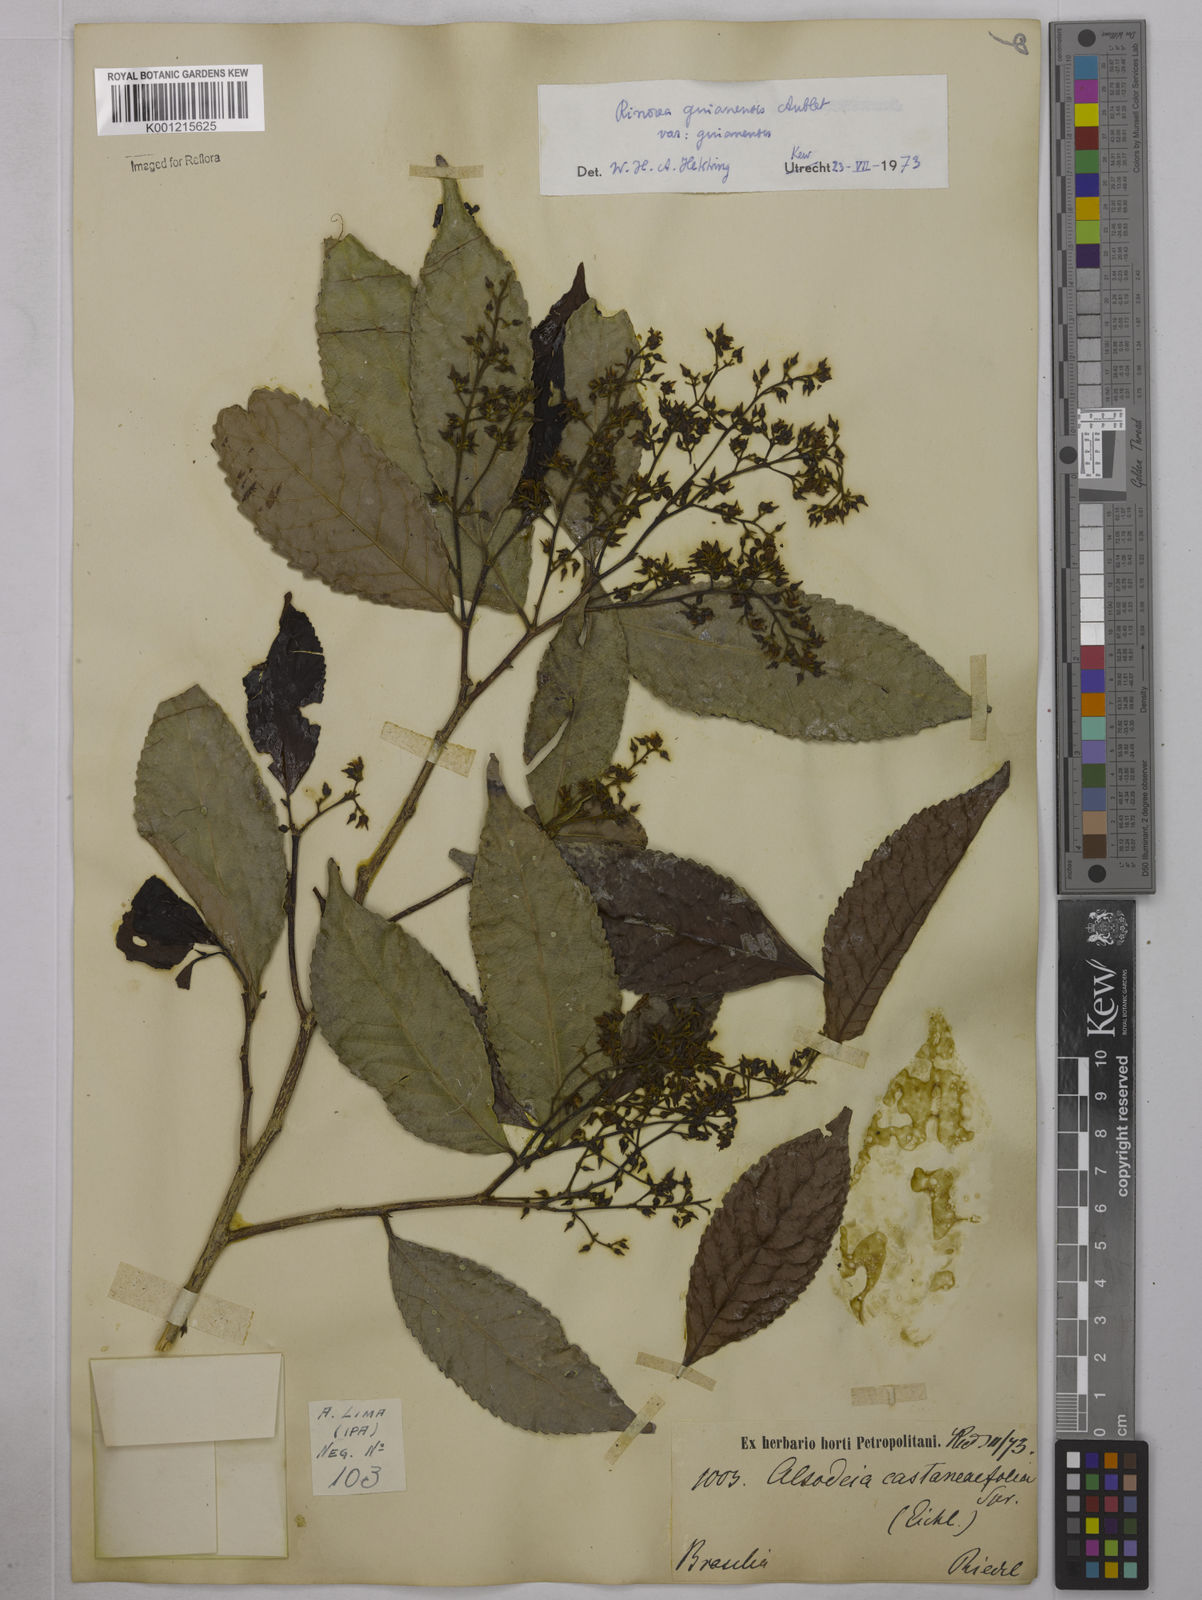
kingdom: Plantae
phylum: Tracheophyta
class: Magnoliopsida
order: Malpighiales
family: Violaceae
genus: Rinorea
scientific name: Rinorea guianensis
